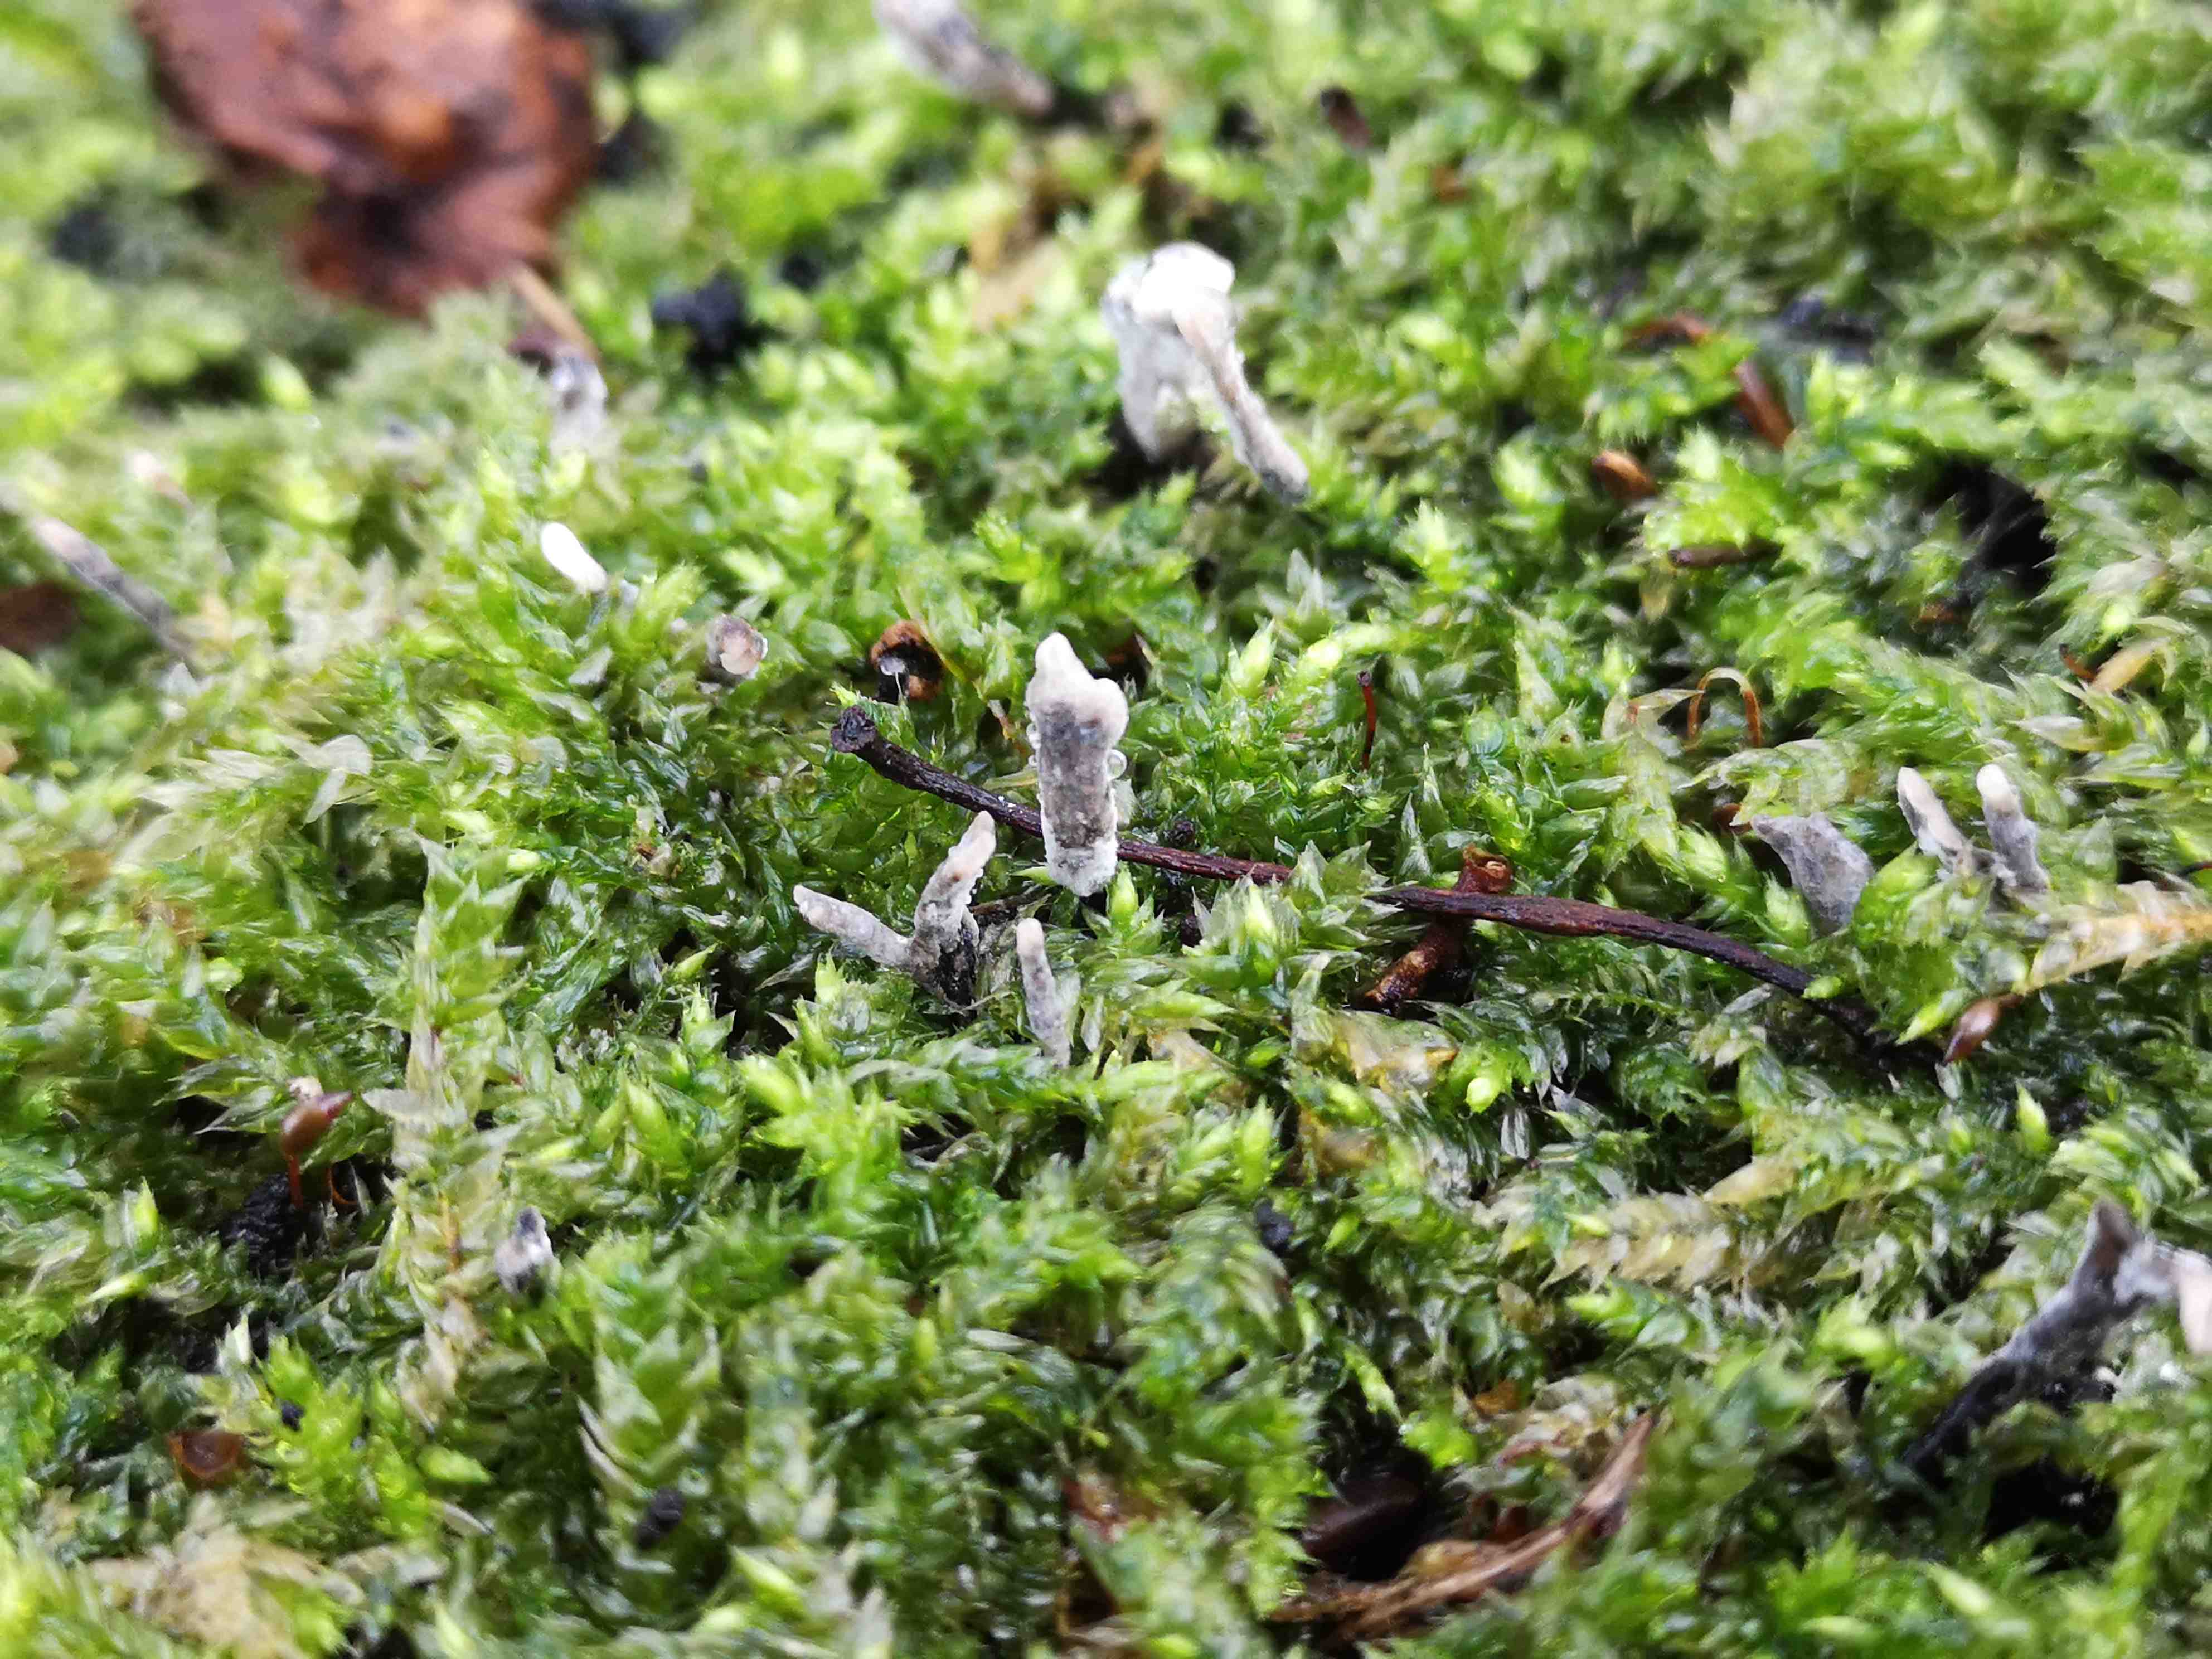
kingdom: Fungi
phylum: Ascomycota
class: Sordariomycetes
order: Xylariales
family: Xylariaceae
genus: Xylaria
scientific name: Xylaria hypoxylon
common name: grenet stødsvamp
